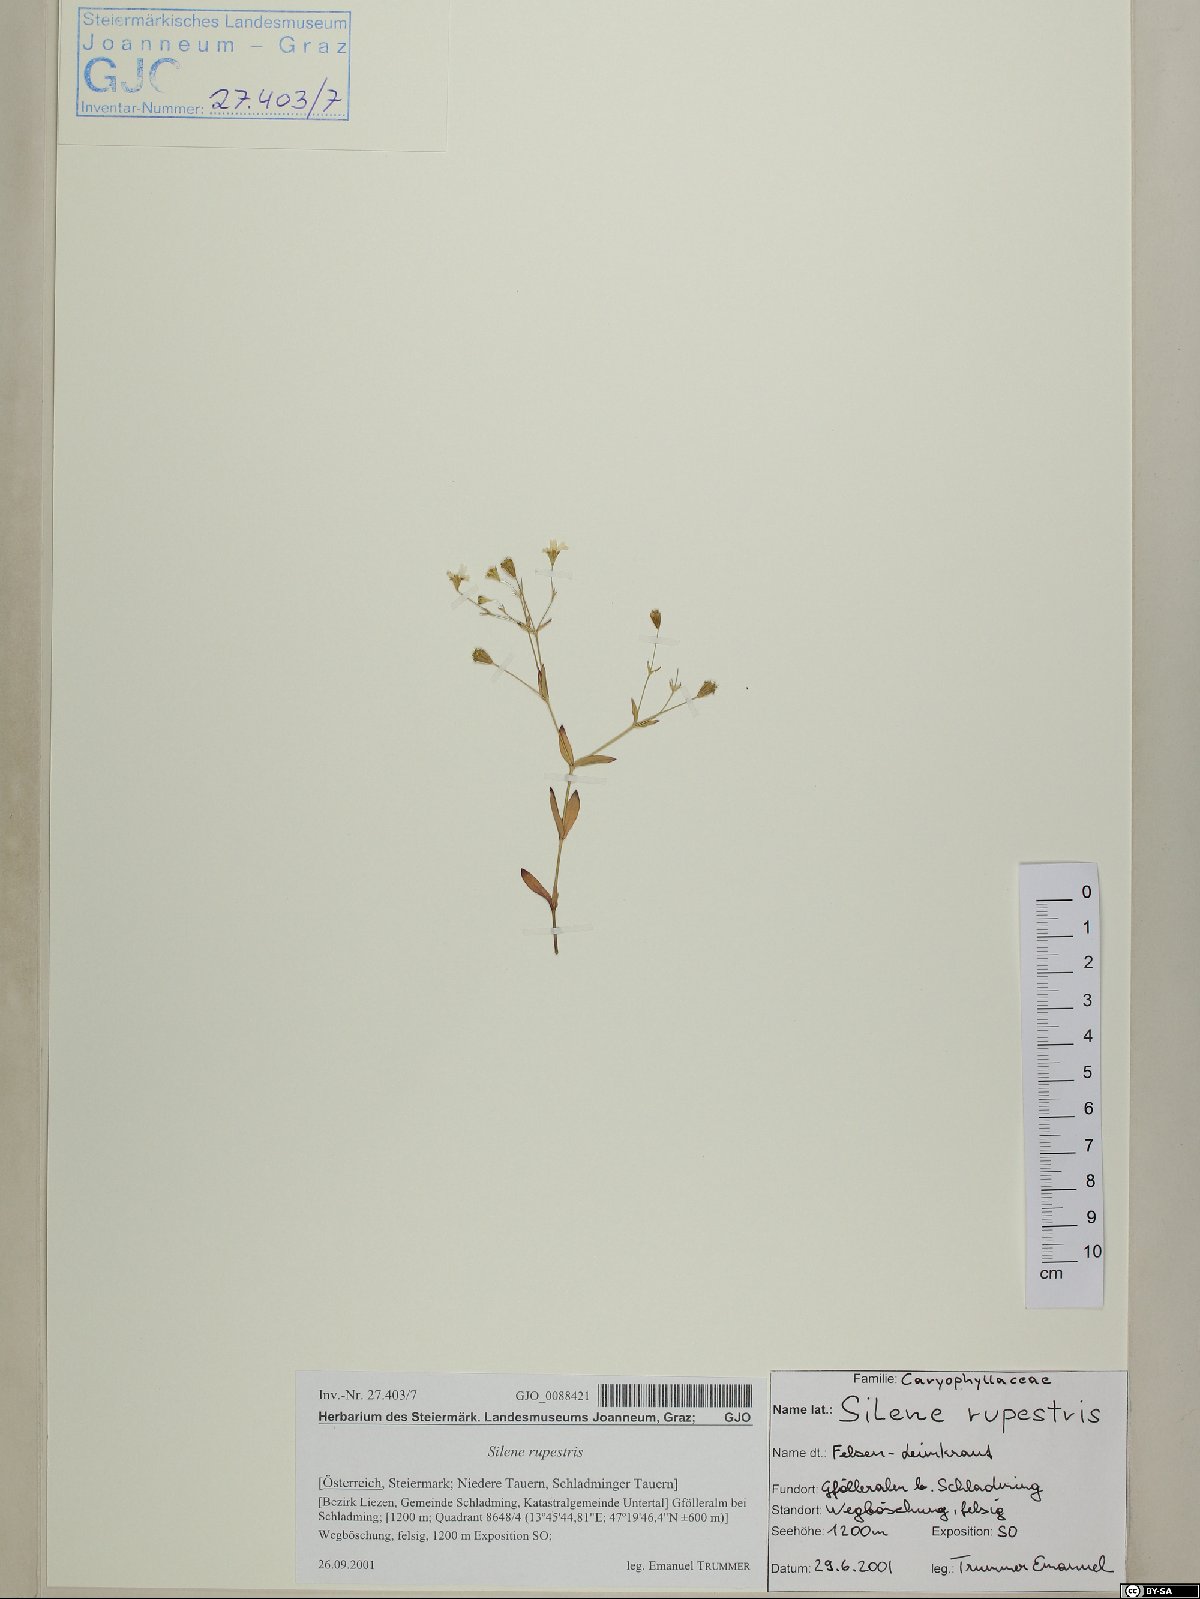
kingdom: Plantae
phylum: Tracheophyta
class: Magnoliopsida
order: Caryophyllales
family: Caryophyllaceae
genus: Atocion
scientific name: Atocion rupestre
